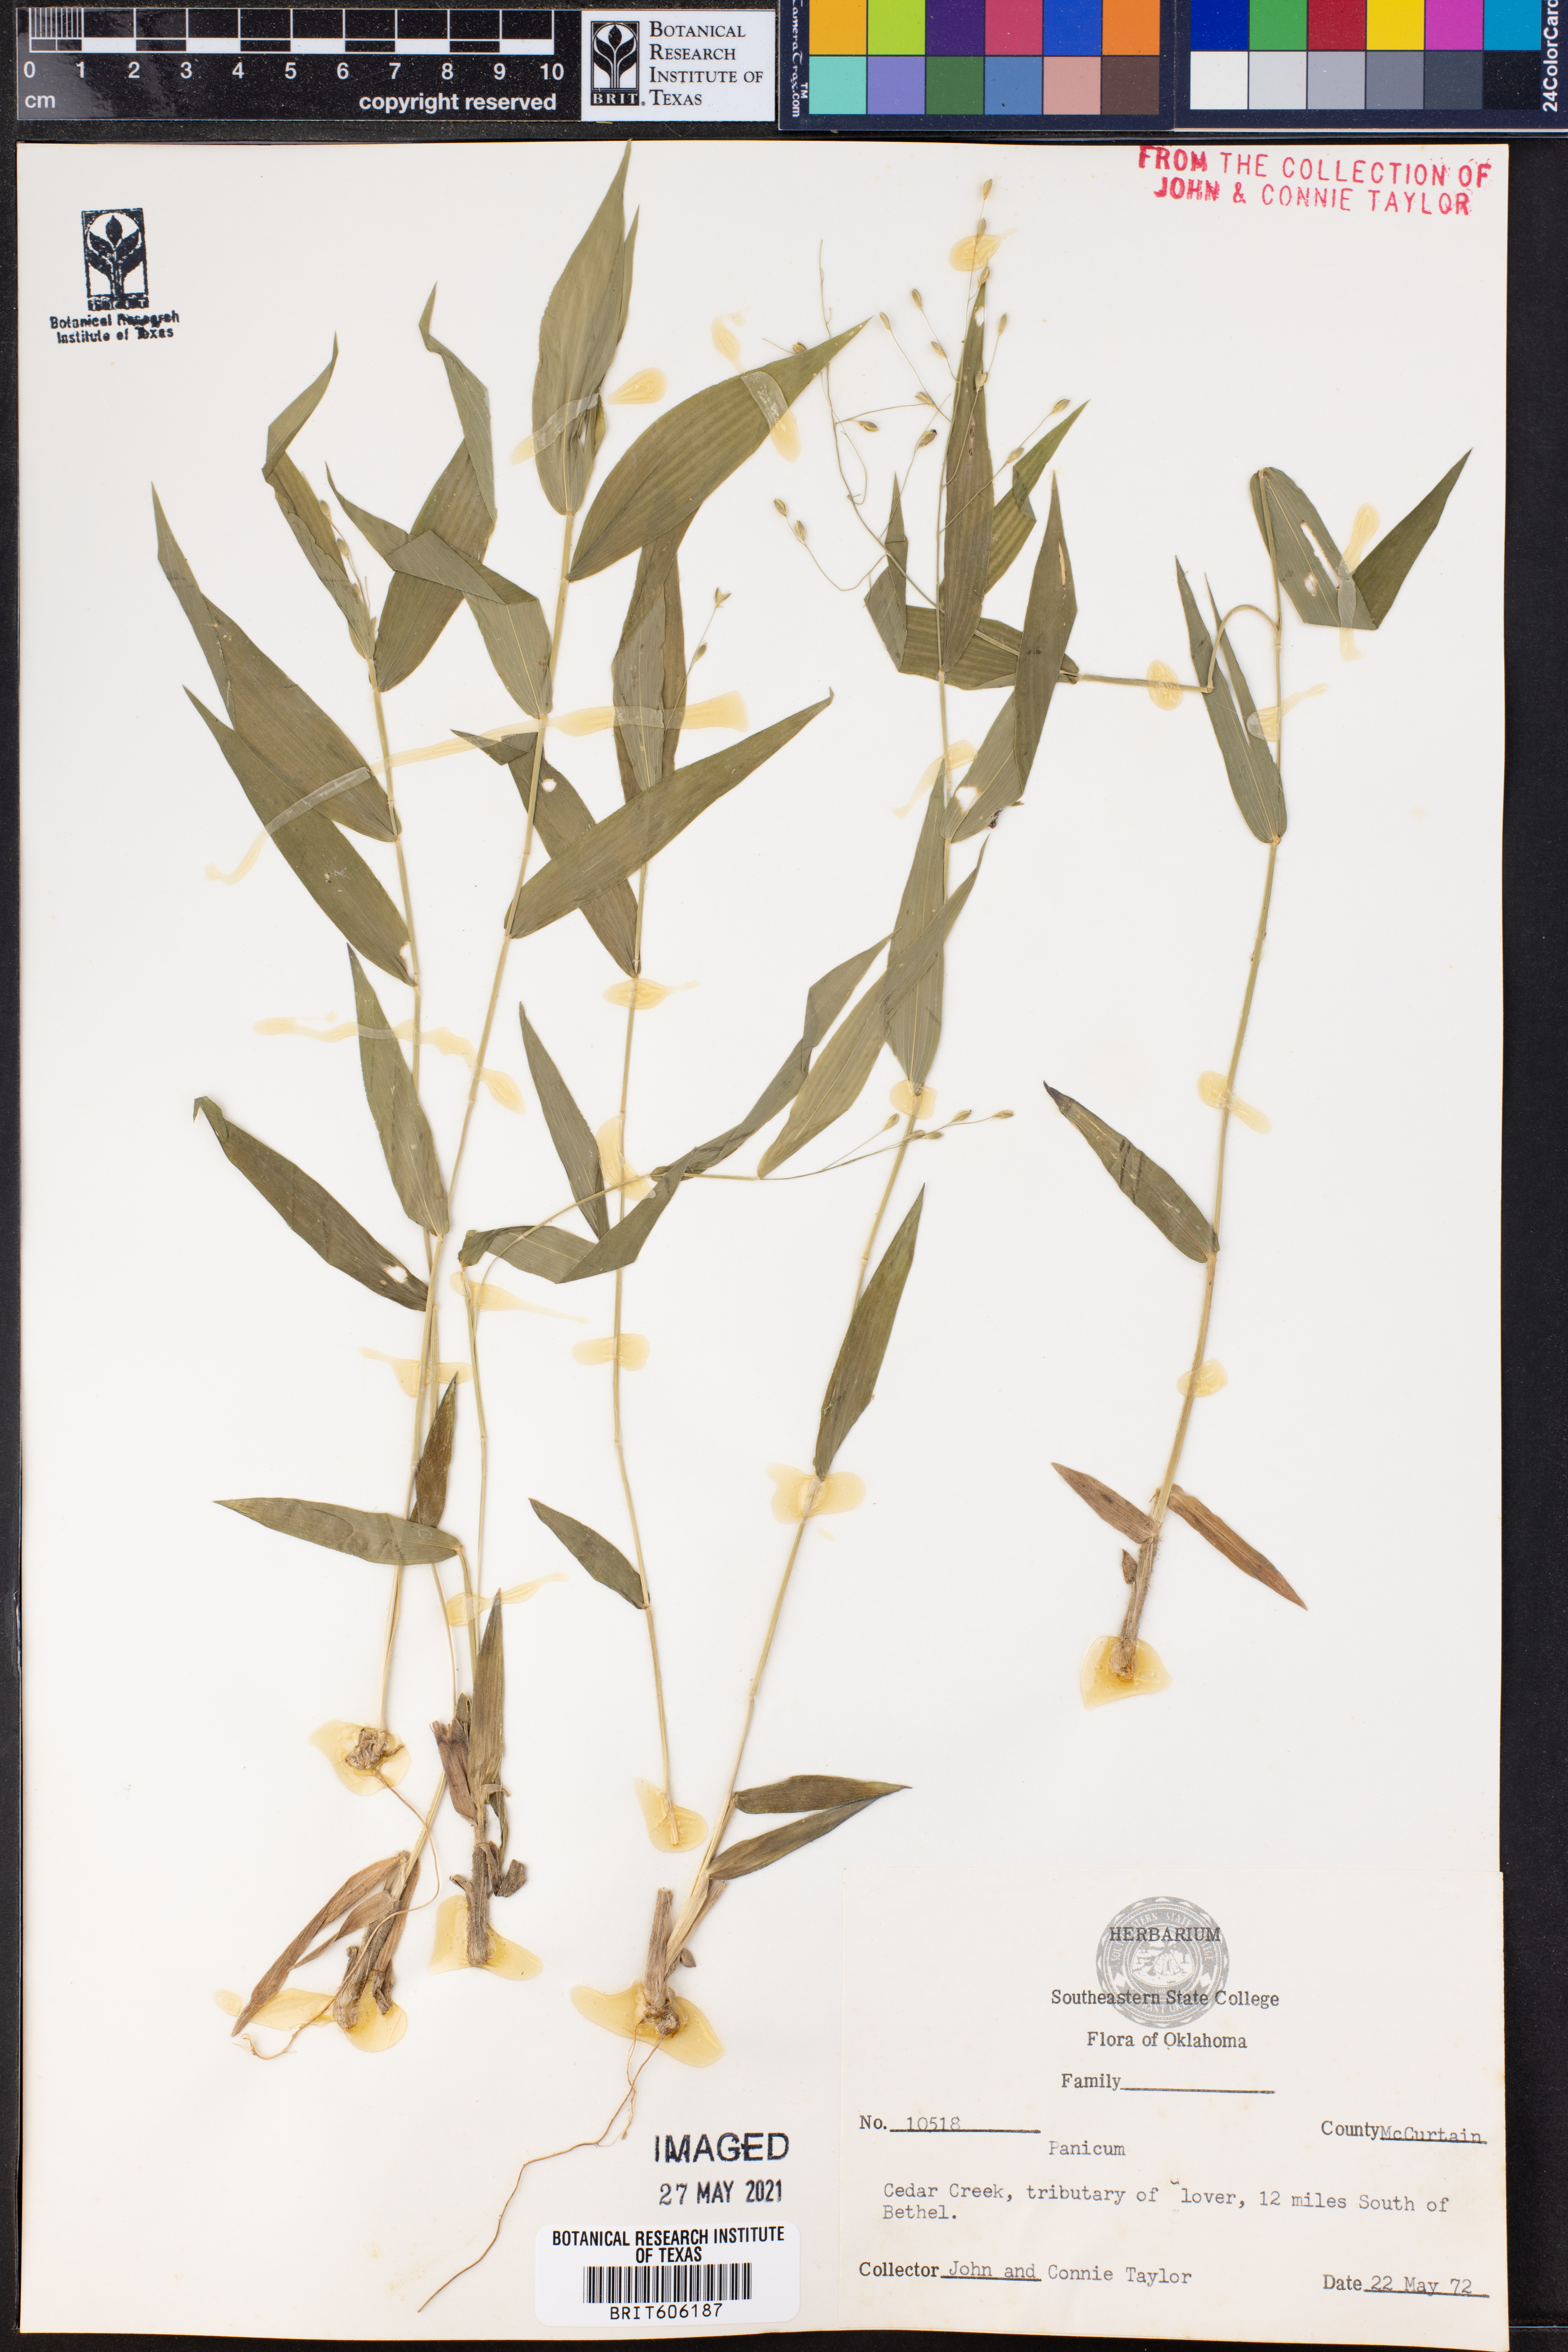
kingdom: Plantae
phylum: Tracheophyta
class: Liliopsida
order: Poales
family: Poaceae
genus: Panicum
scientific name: Panicum
